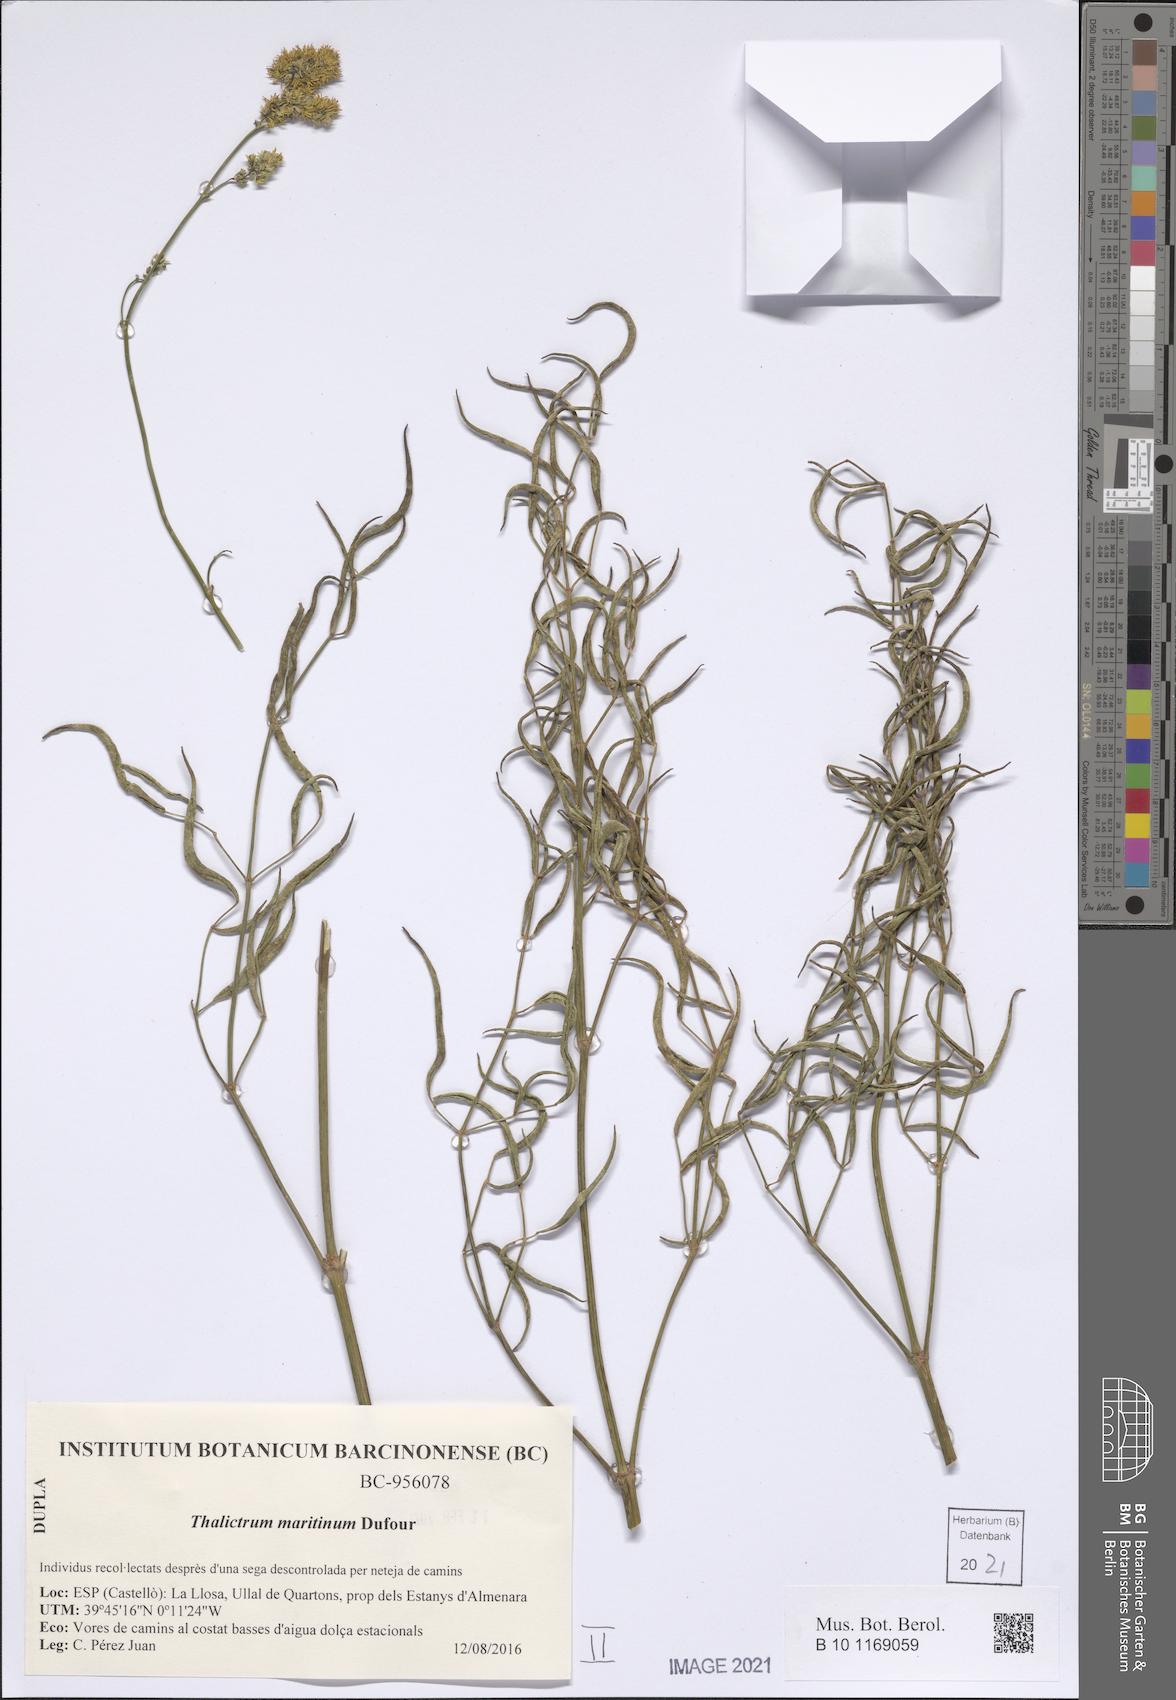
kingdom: Plantae
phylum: Tracheophyta
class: Magnoliopsida
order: Ranunculales
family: Ranunculaceae
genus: Thalictrum
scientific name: Thalictrum maritimum
